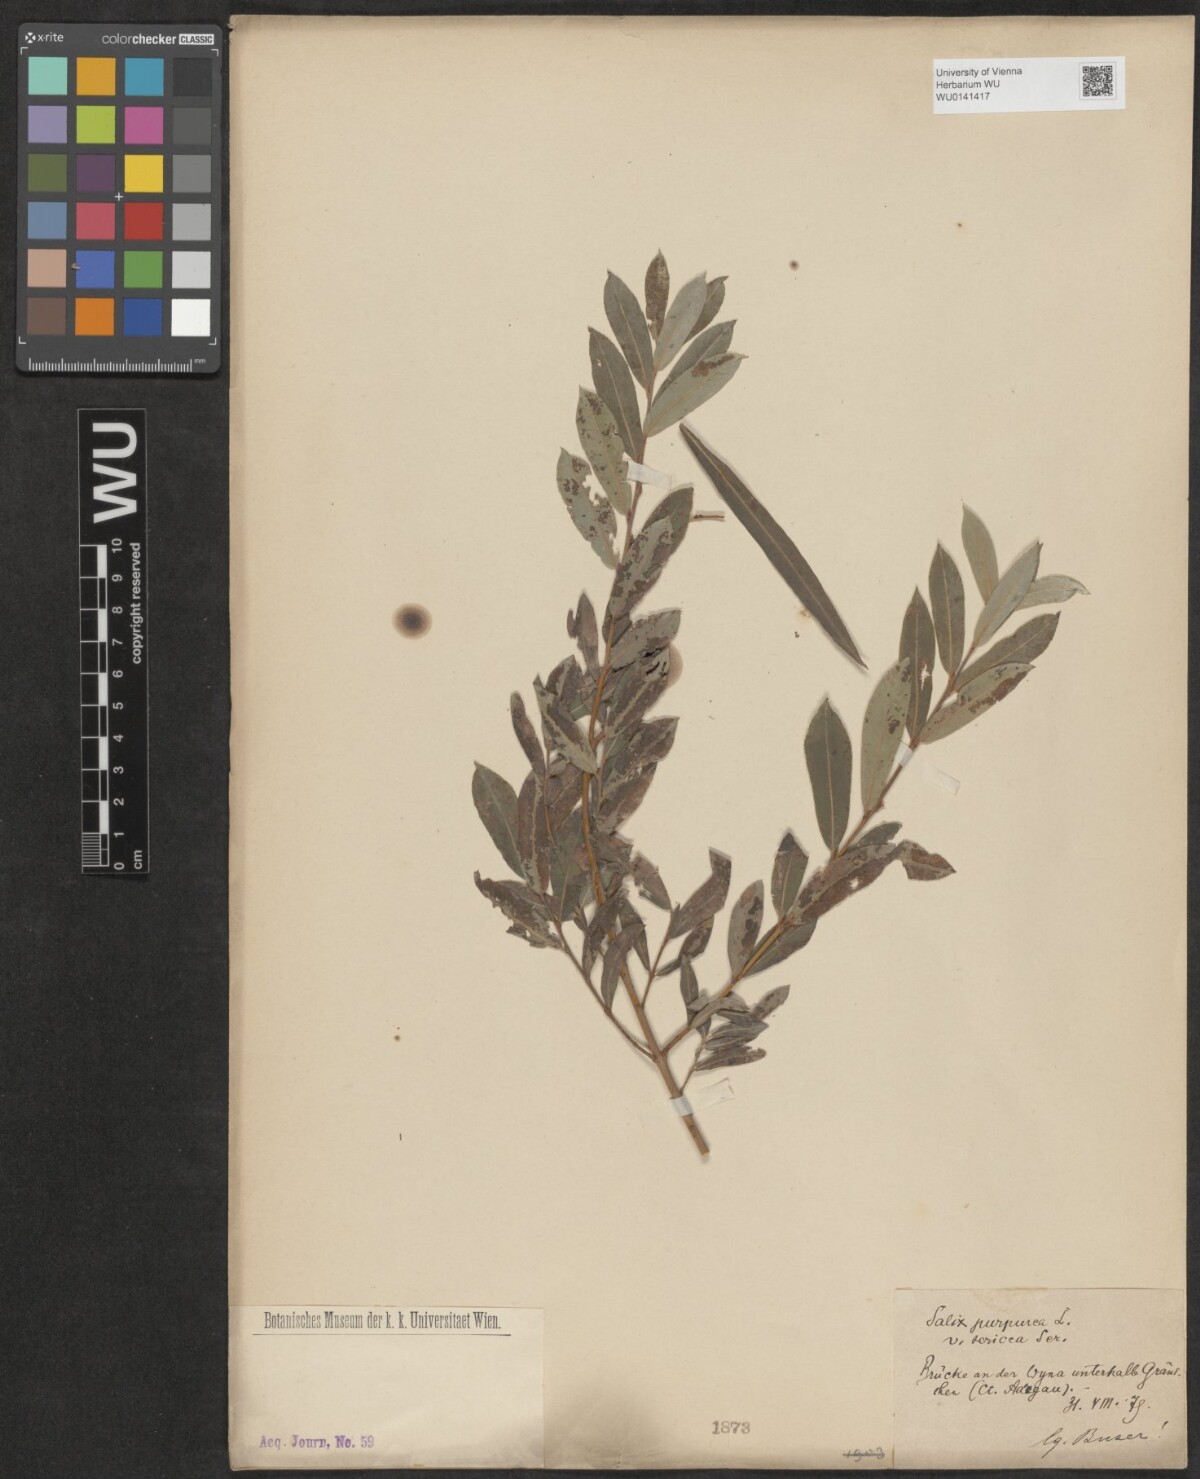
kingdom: Plantae
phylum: Tracheophyta
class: Magnoliopsida
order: Malpighiales
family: Salicaceae
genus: Salix
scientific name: Salix purpurea
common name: Purple willow
